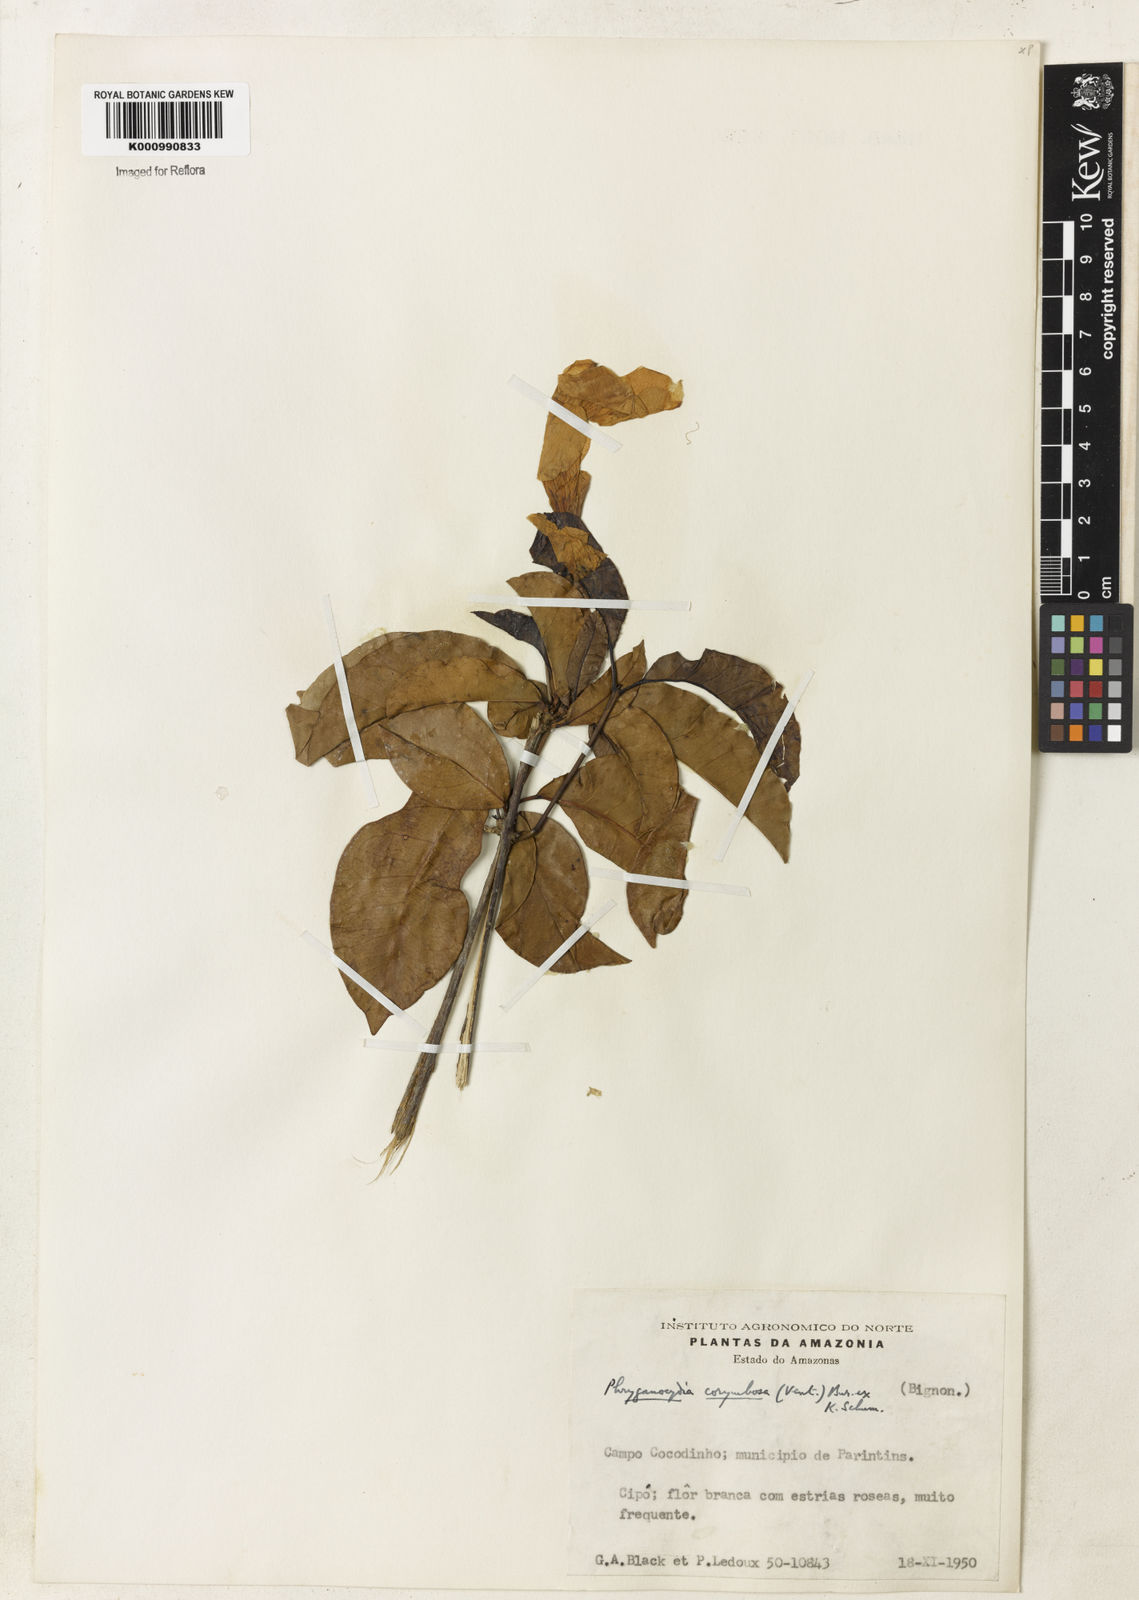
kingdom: Plantae
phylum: Tracheophyta
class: Magnoliopsida
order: Lamiales
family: Bignoniaceae
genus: Bignonia
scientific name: Bignonia corymbosa
